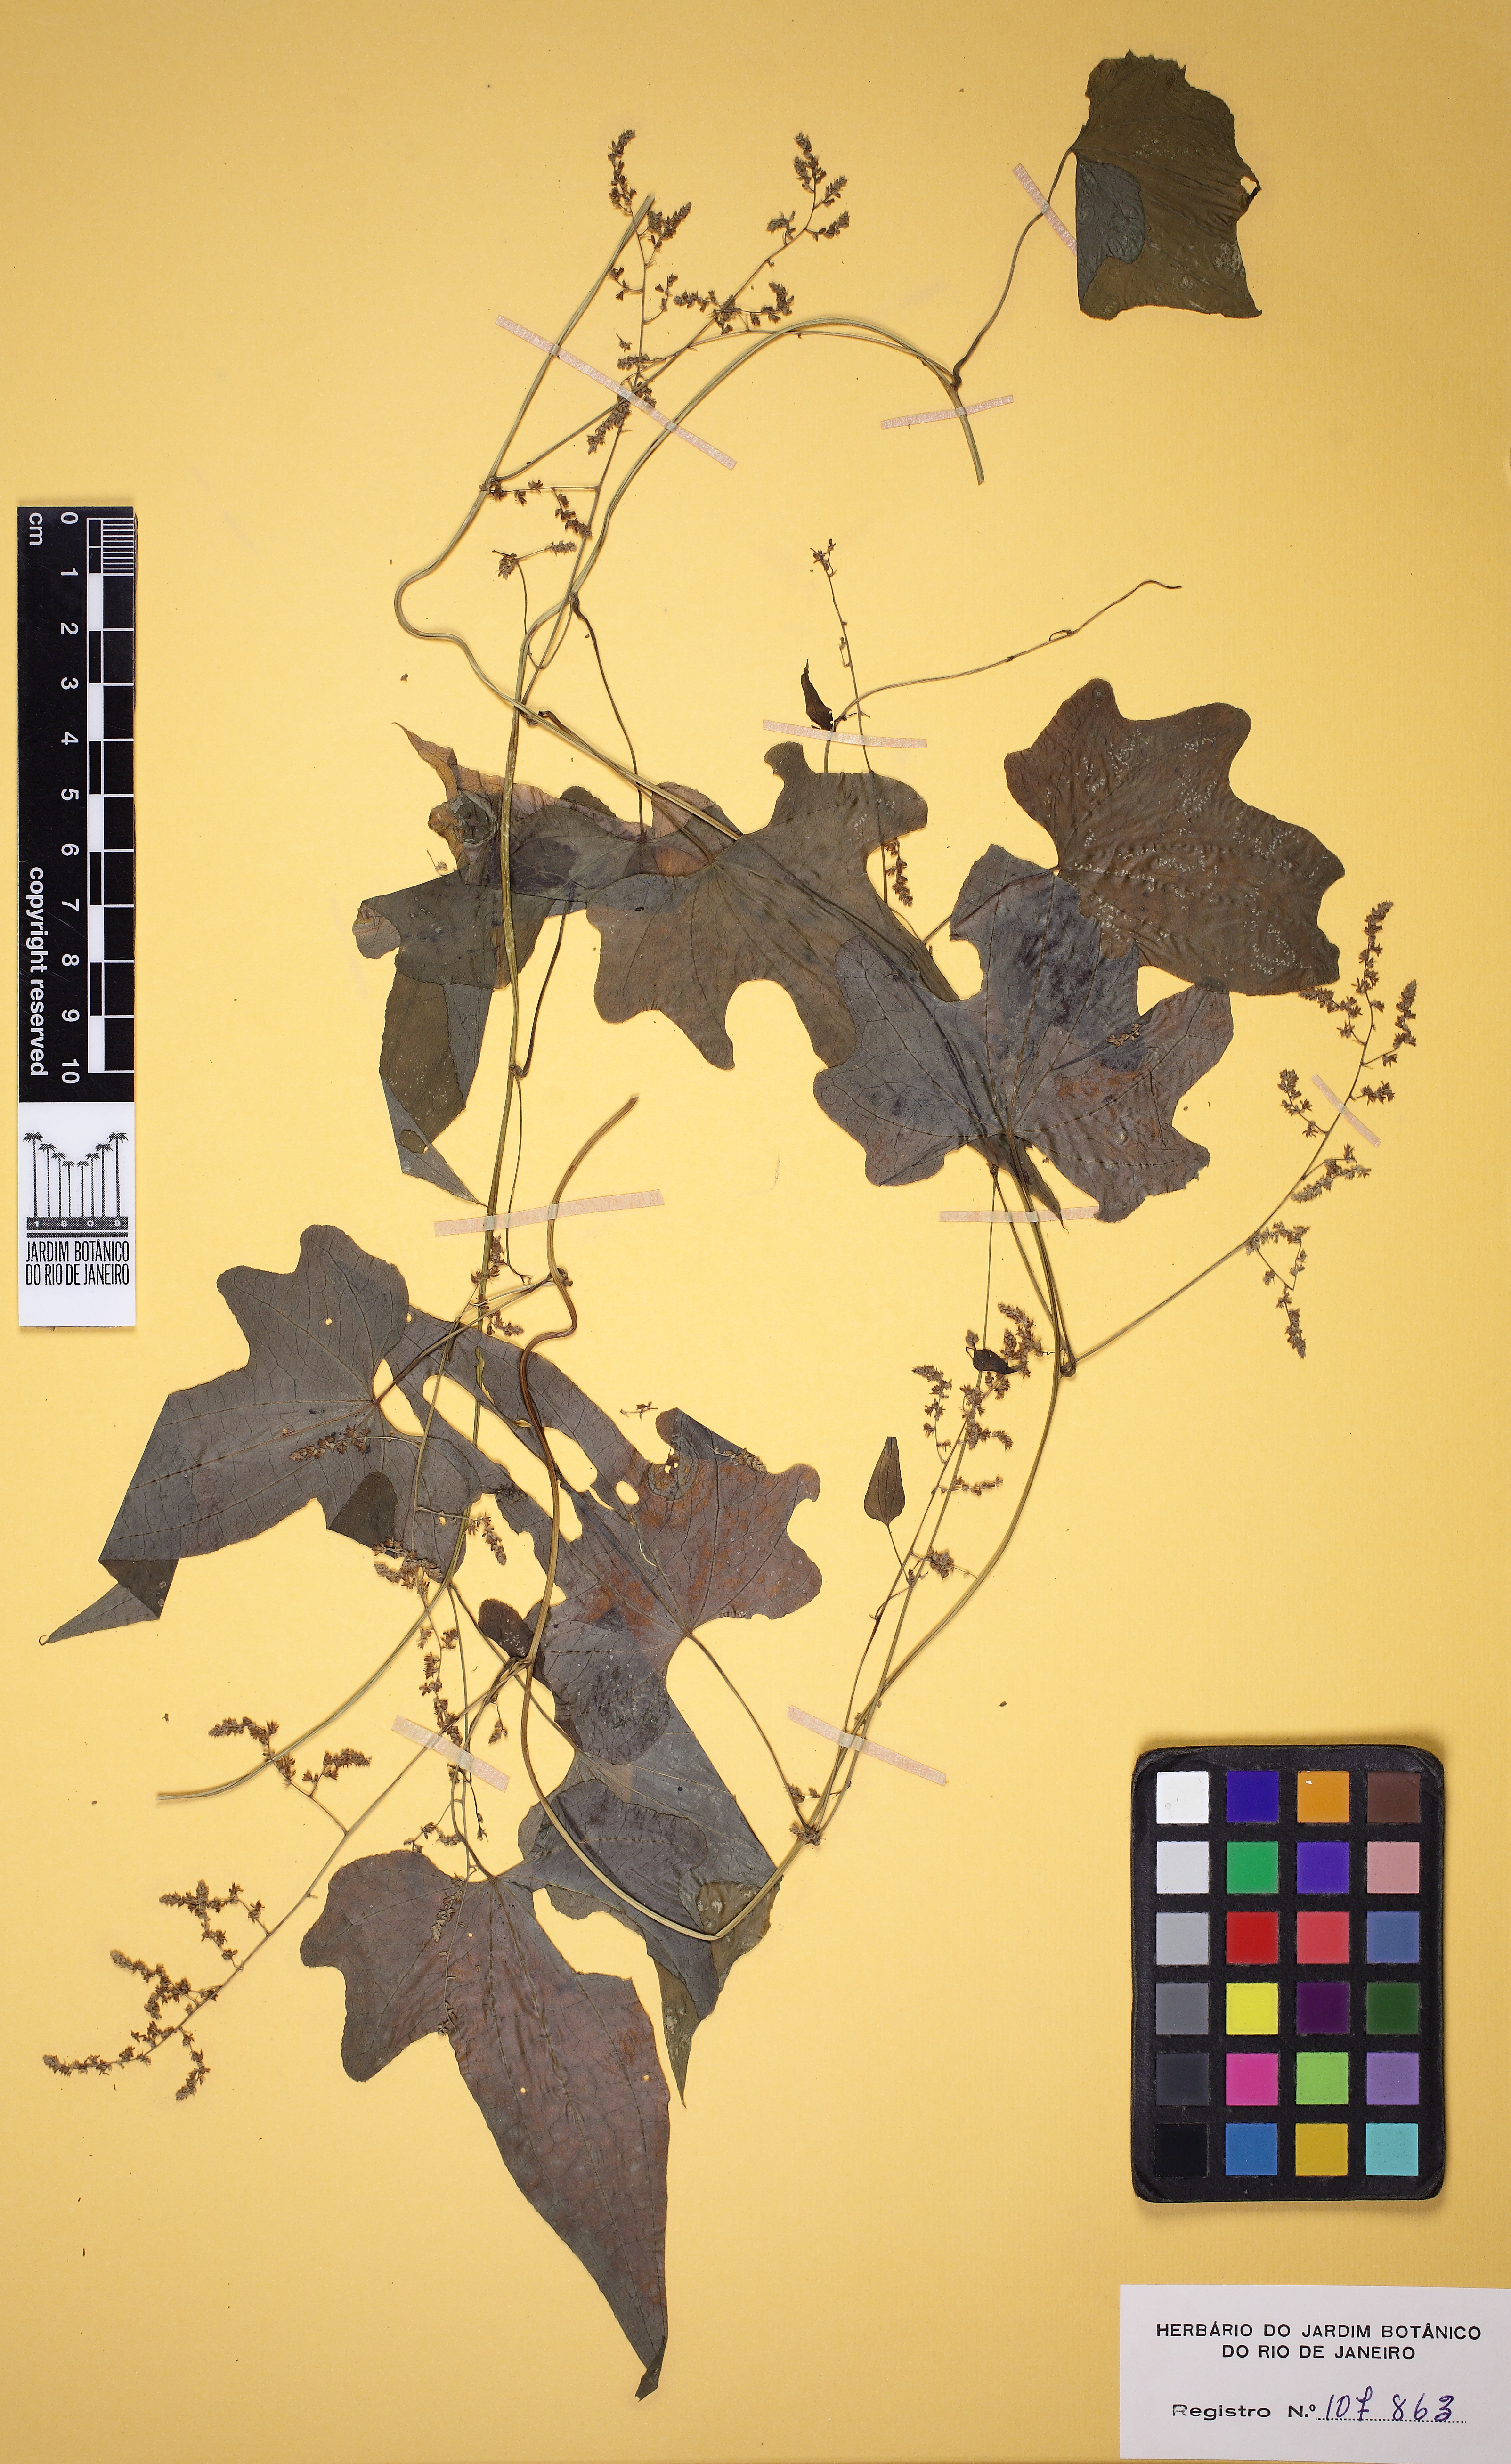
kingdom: Plantae
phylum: Tracheophyta
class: Liliopsida
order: Dioscoreales
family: Dioscoreaceae
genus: Dioscorea
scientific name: Dioscorea sinuata
